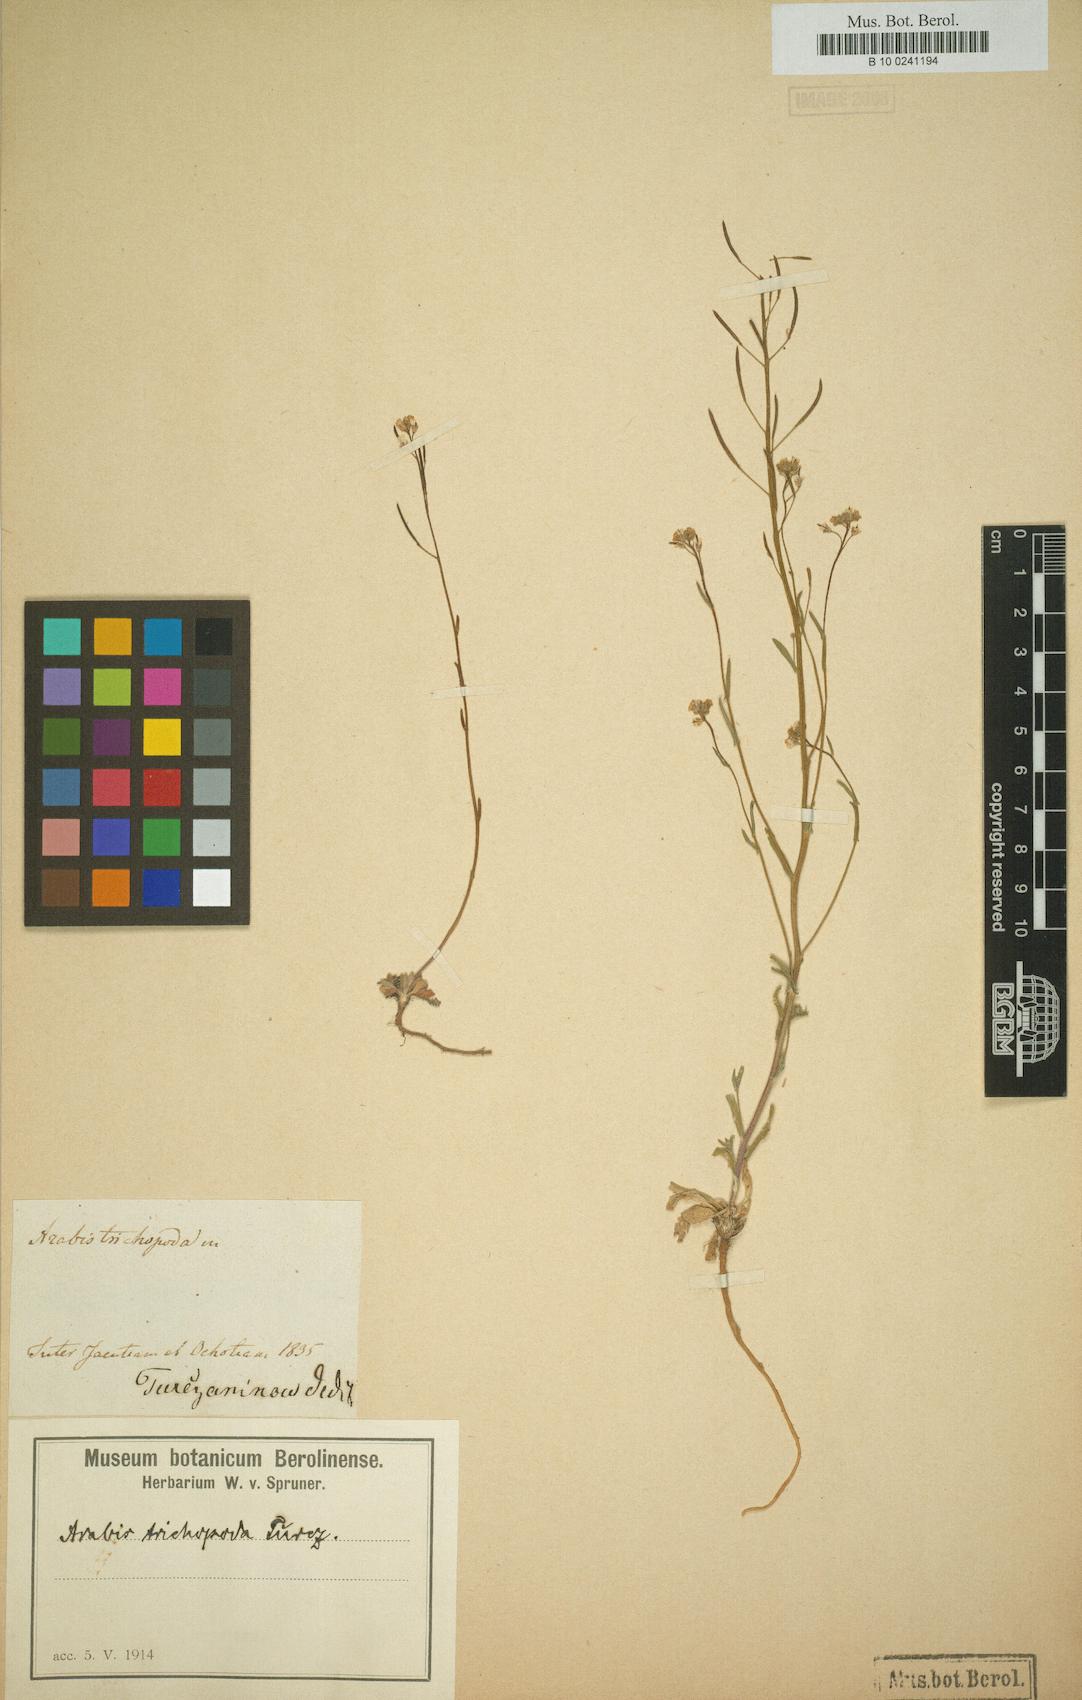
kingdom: Plantae
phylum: Tracheophyta
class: Magnoliopsida
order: Brassicales
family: Brassicaceae
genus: Crucihimalaya
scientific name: Crucihimalaya bursifolia
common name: Soft fissurewort
